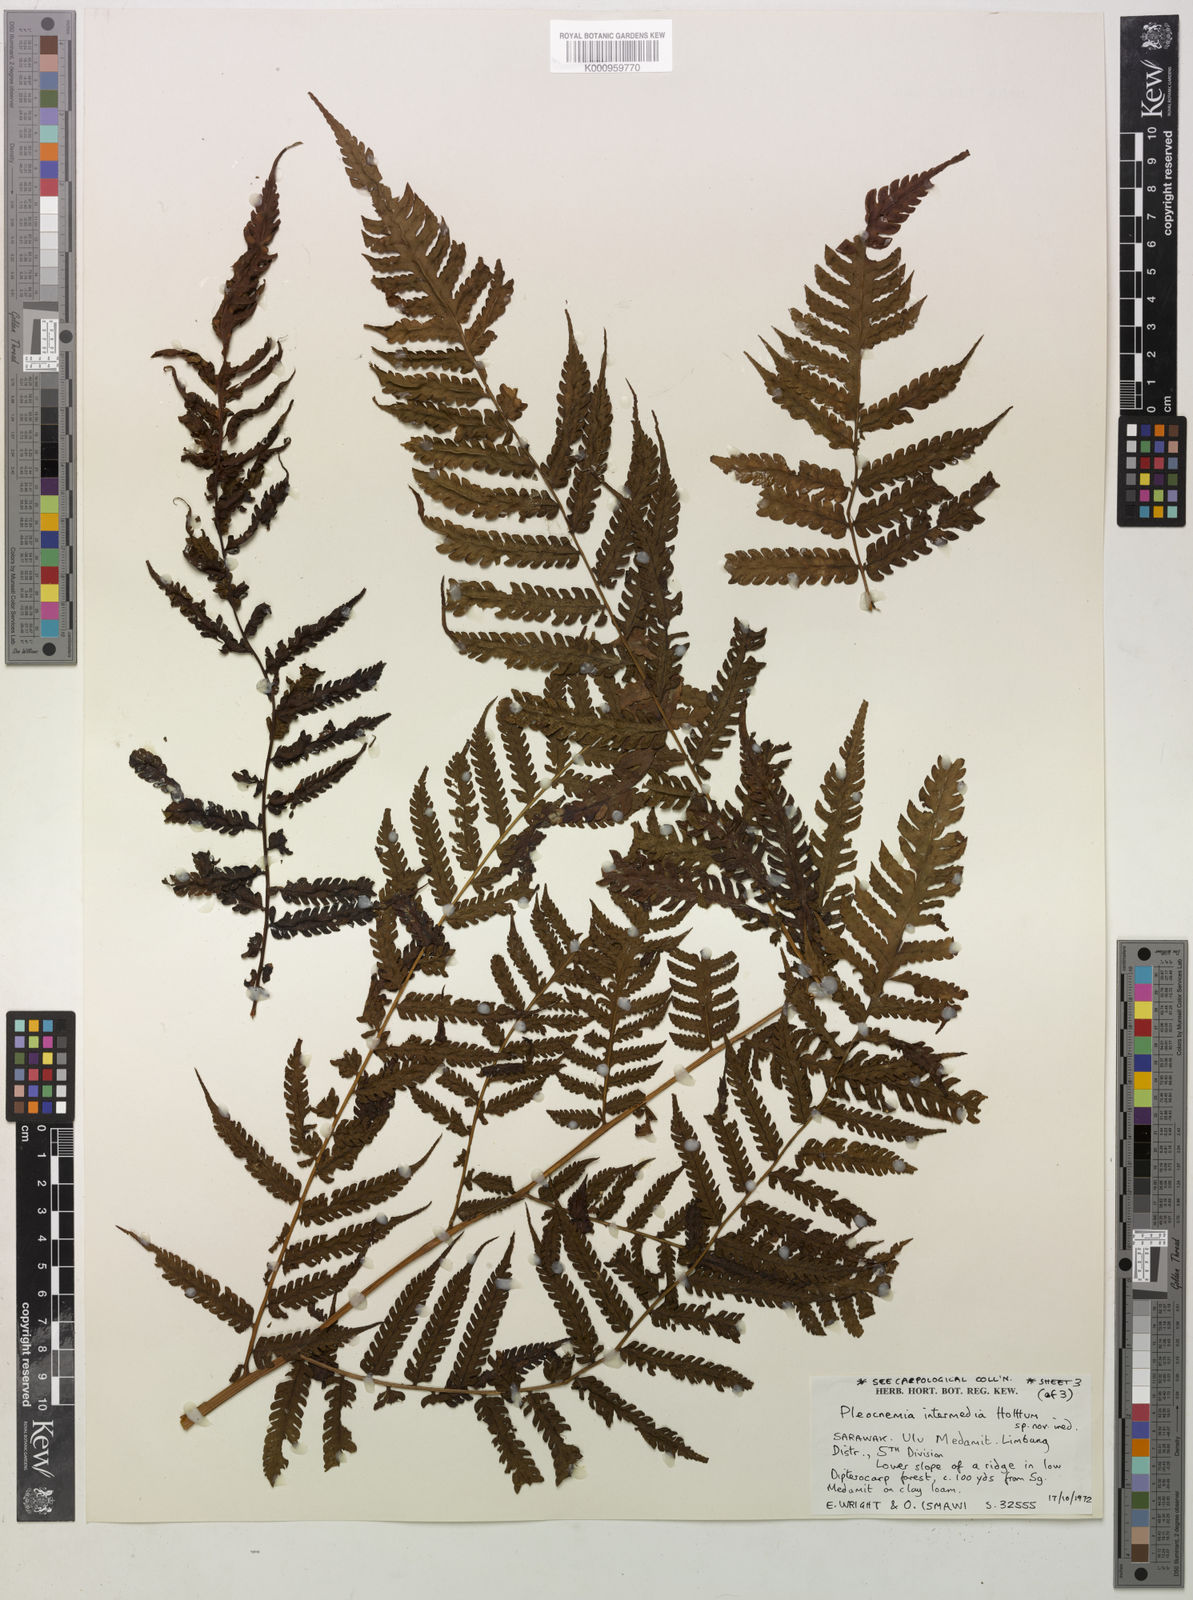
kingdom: Plantae
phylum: Tracheophyta
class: Polypodiopsida
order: Polypodiales
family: Dryopteridaceae
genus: Pleocnemia
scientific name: Pleocnemia intermedia
